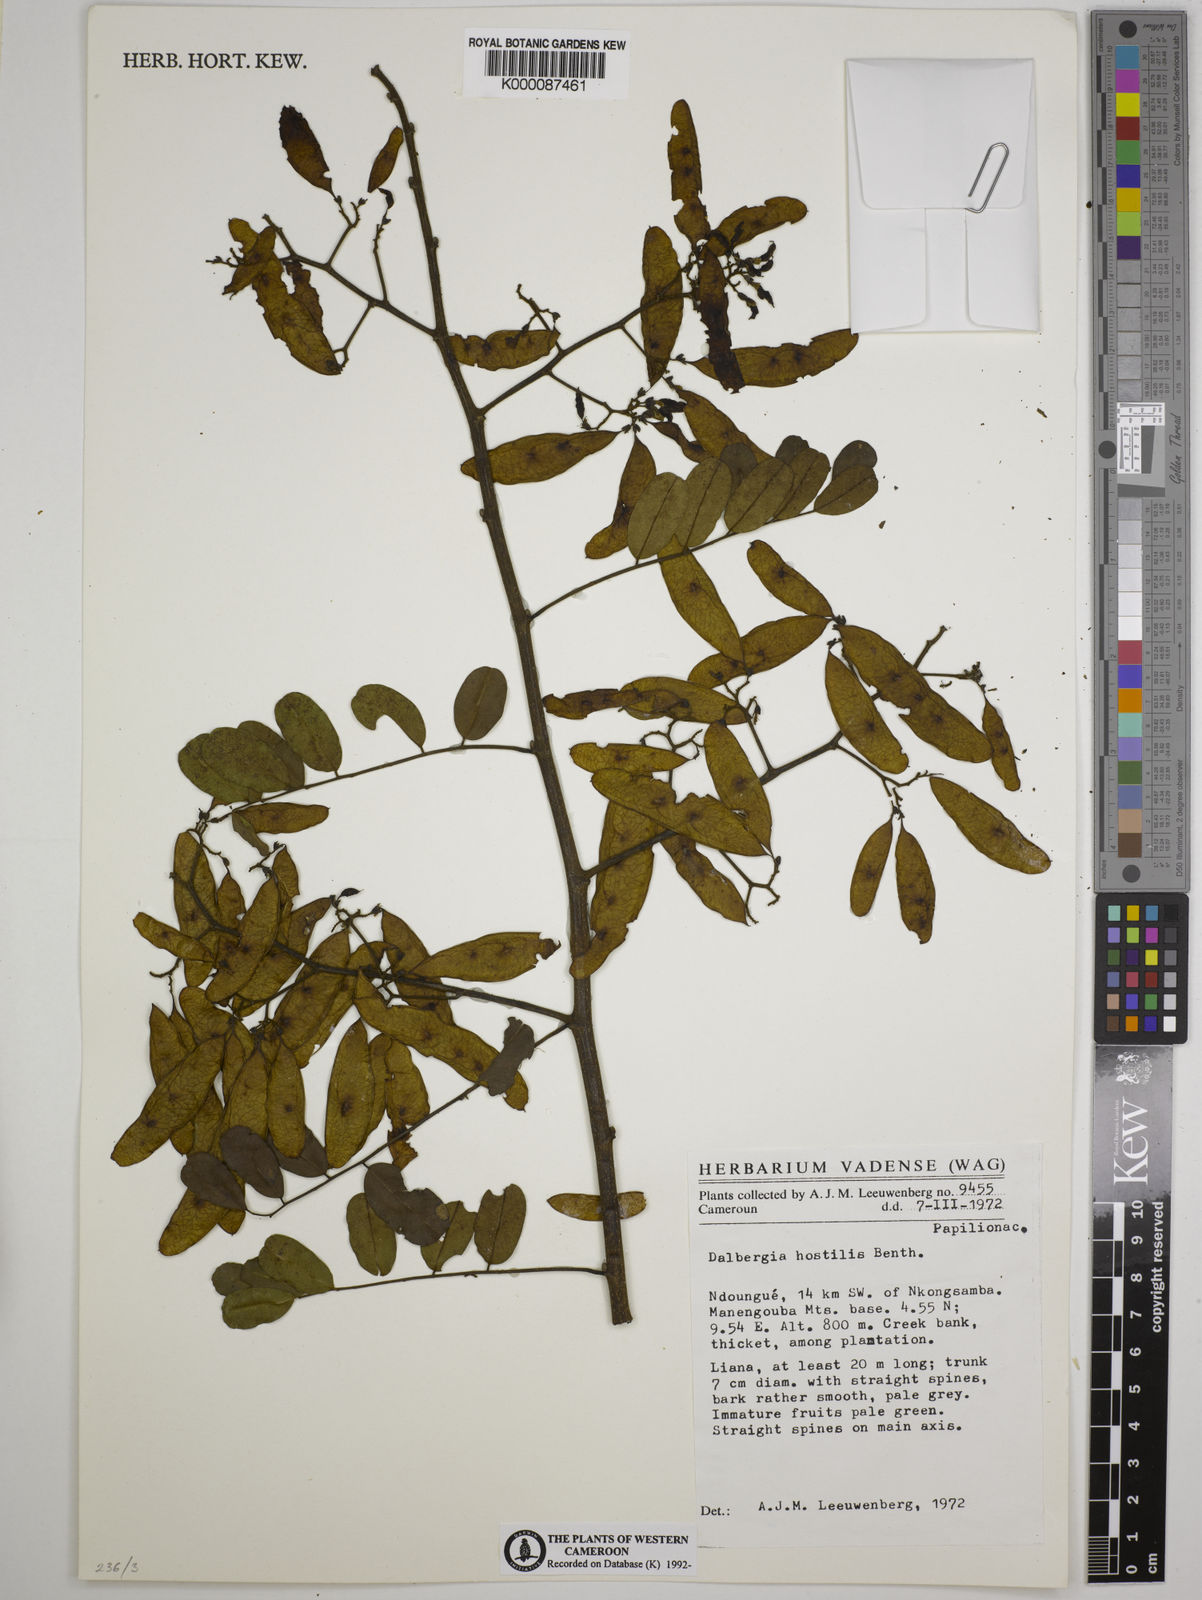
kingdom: Plantae
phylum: Tracheophyta
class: Magnoliopsida
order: Fabales
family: Fabaceae
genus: Dalbergia
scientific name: Dalbergia hostilis
